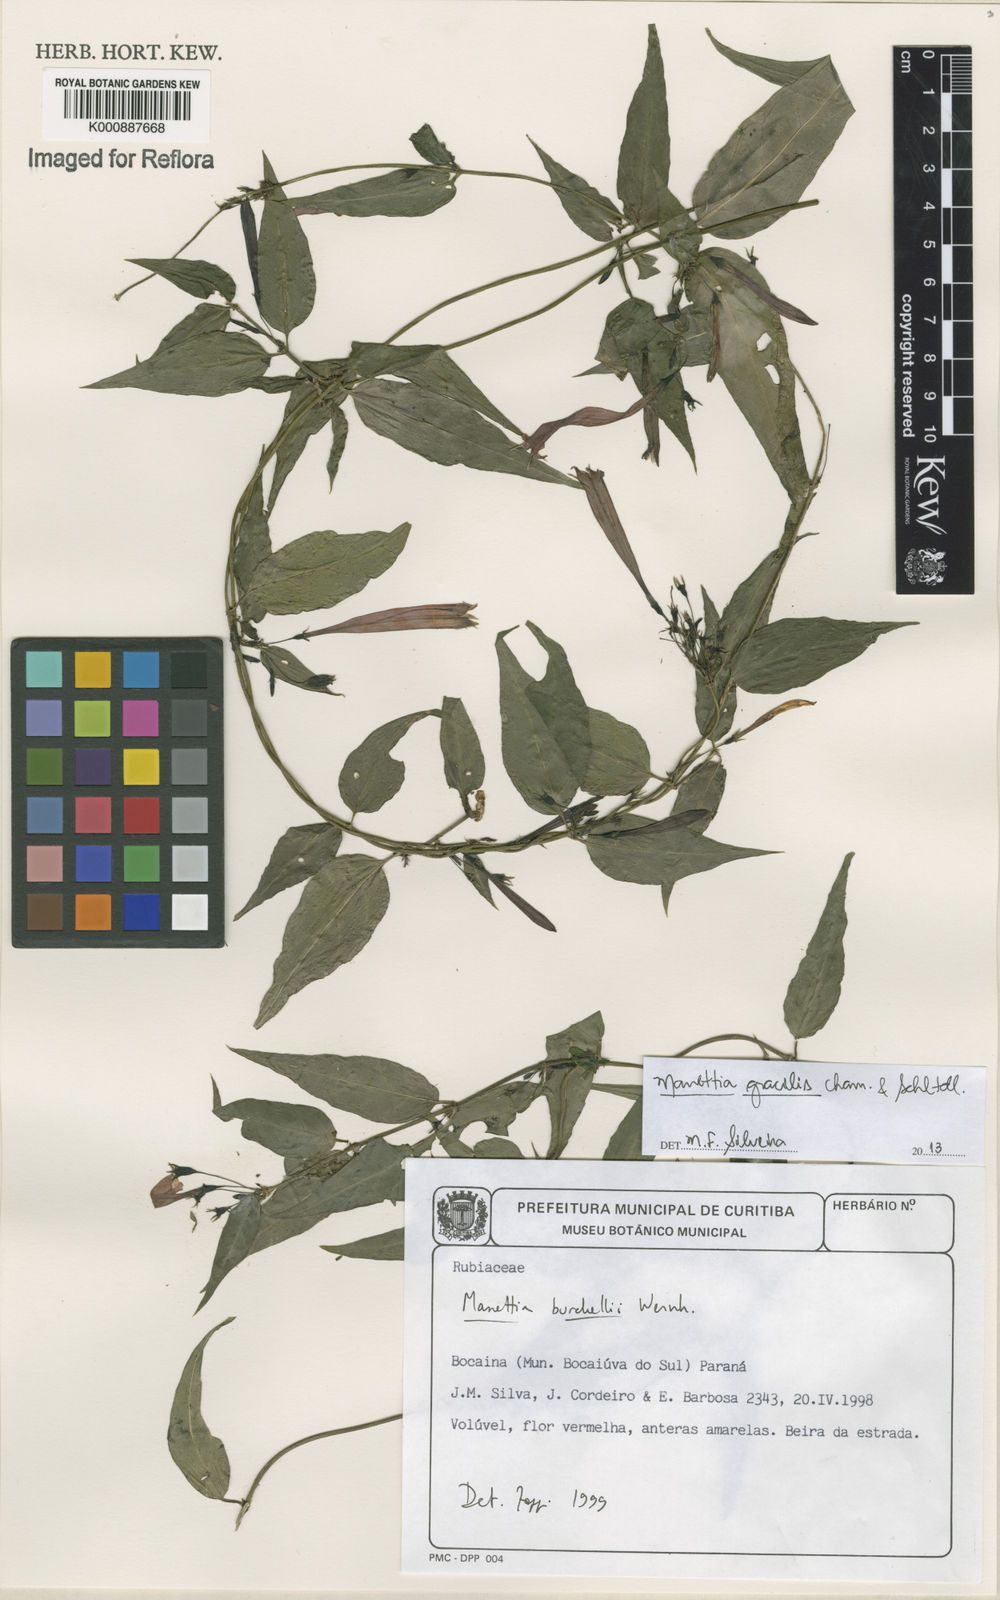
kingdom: Plantae
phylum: Tracheophyta
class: Magnoliopsida
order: Gentianales
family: Rubiaceae
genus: Manettia
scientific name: Manettia gracilis
